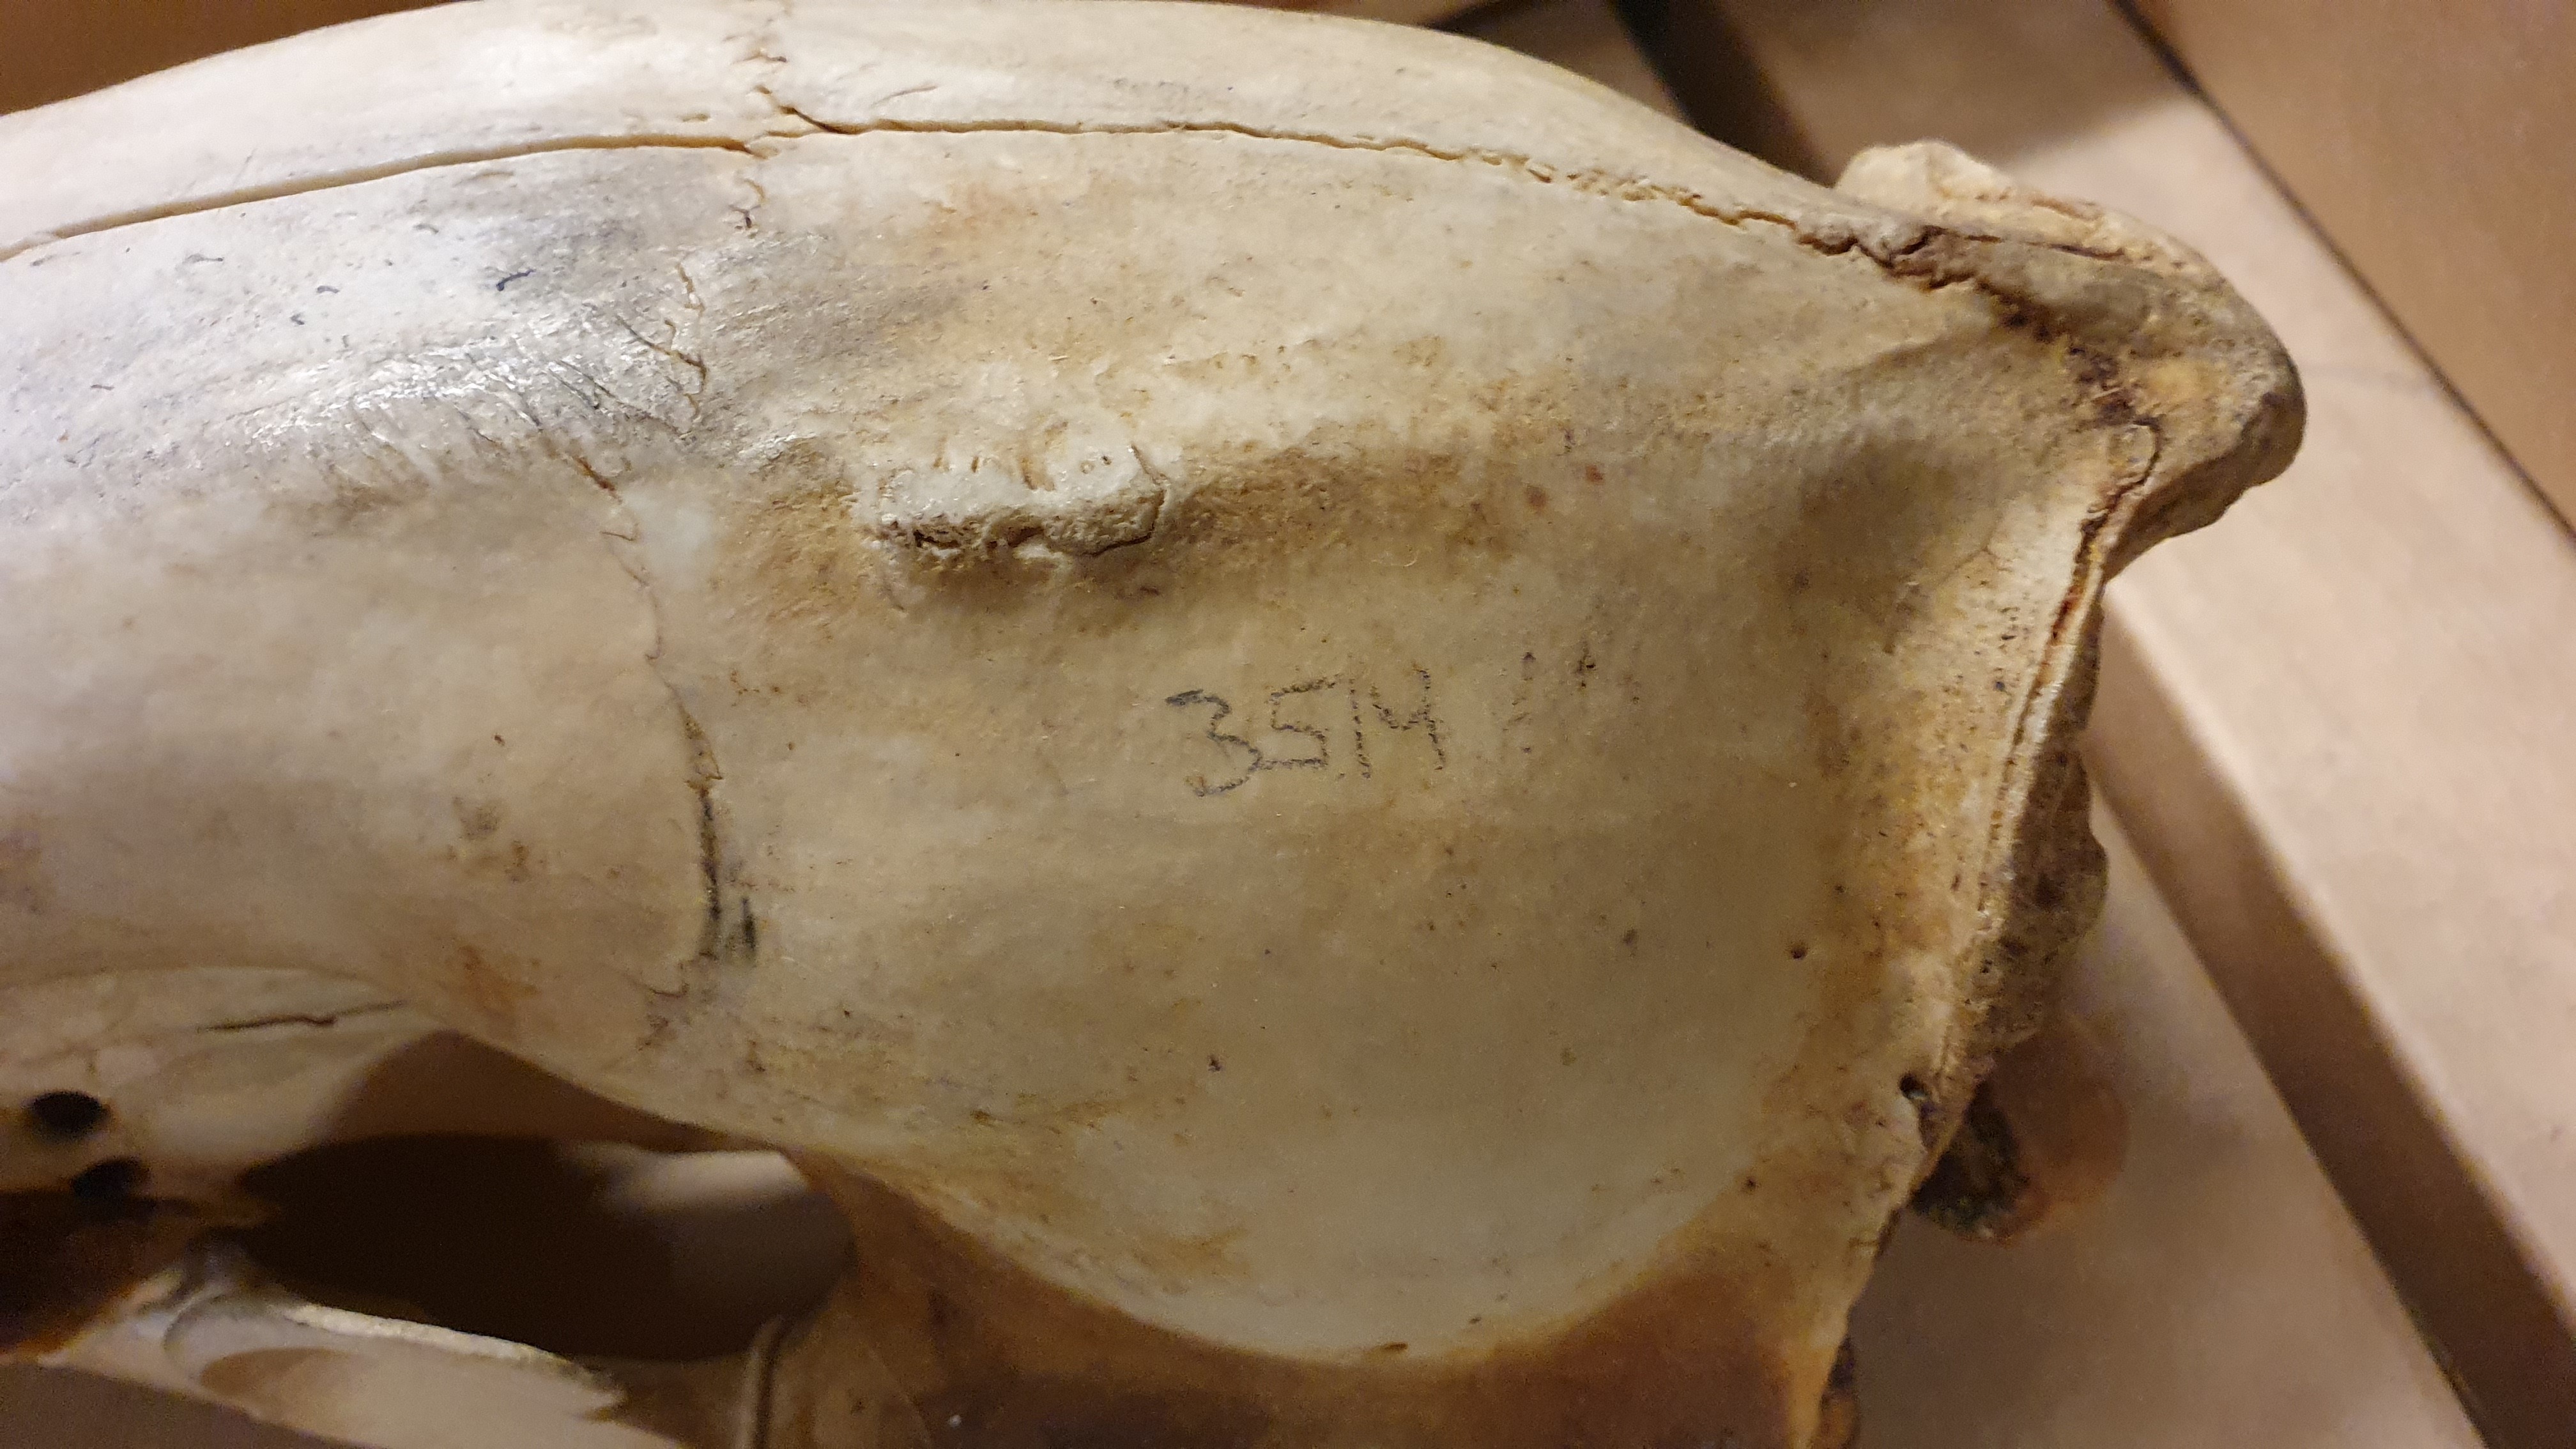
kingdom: Animalia
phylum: Chordata
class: Mammalia
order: Carnivora
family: Ursidae
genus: Ursus
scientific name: Ursus maritimus
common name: Polar bear
